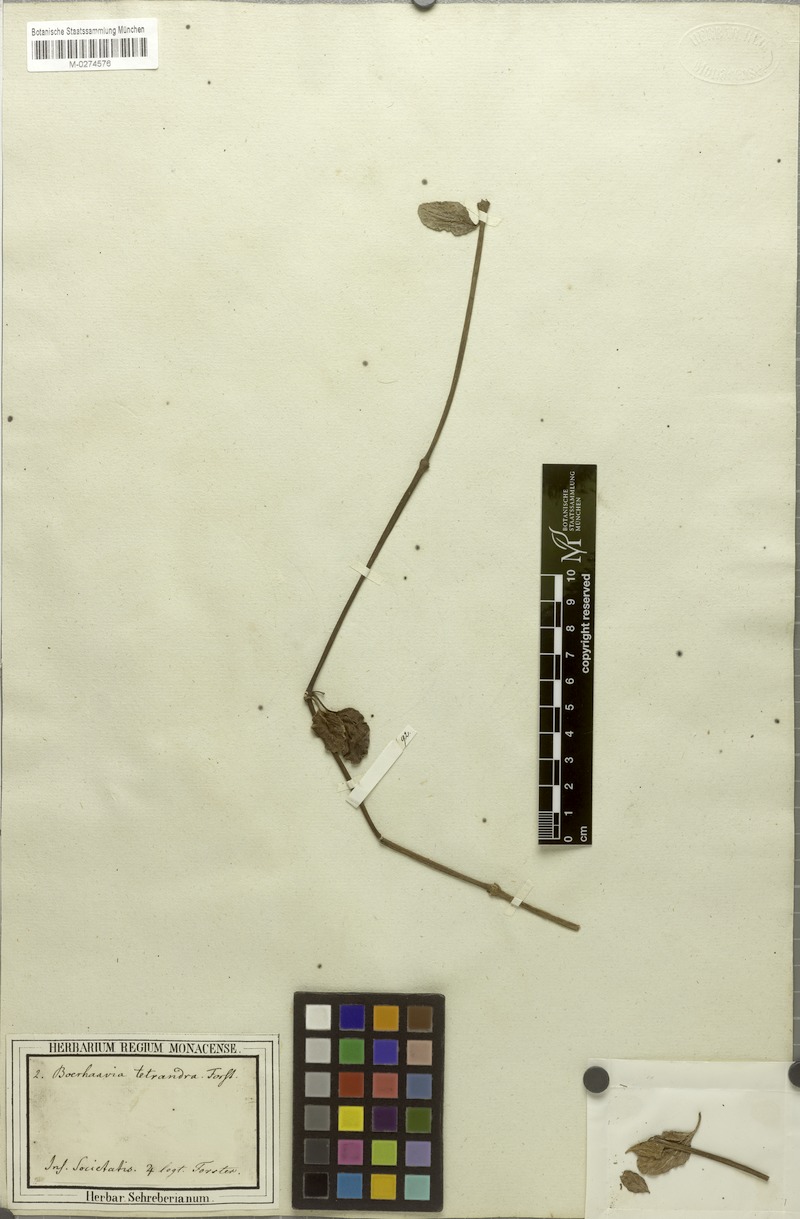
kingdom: Plantae
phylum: Tracheophyta
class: Magnoliopsida
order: Caryophyllales
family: Nyctaginaceae
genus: Boerhavia
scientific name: Boerhavia tetrandra
